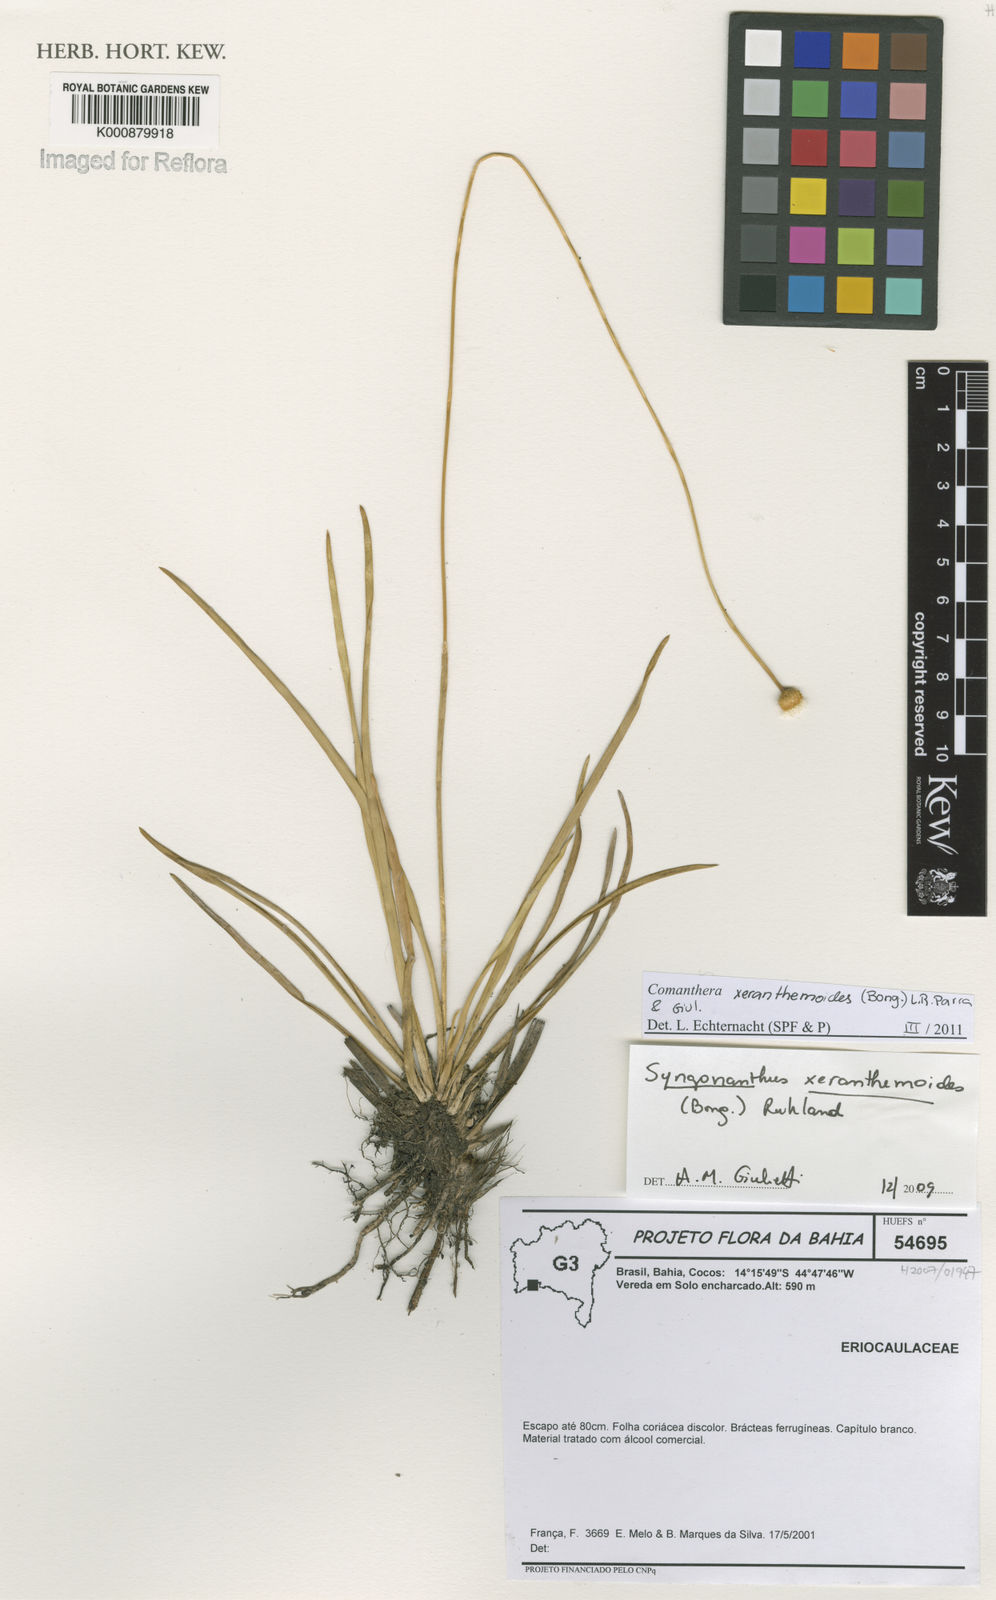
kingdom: Plantae
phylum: Tracheophyta
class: Liliopsida
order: Poales
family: Eriocaulaceae
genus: Comanthera
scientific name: Comanthera xeranthemoides
